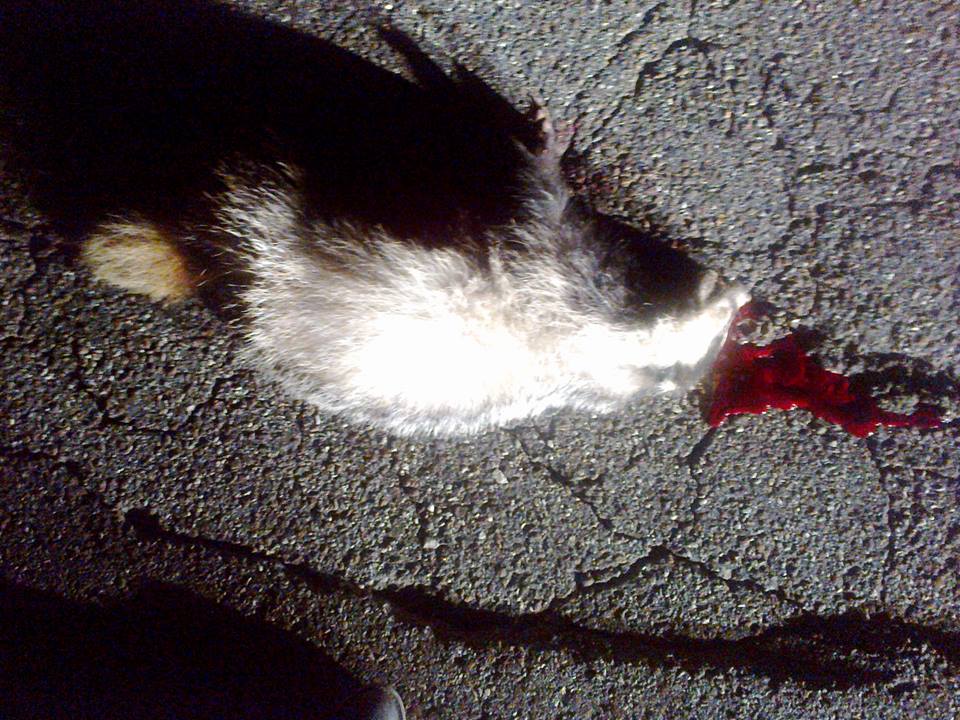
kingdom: Animalia
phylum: Chordata
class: Mammalia
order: Carnivora
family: Mustelidae
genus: Meles
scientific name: Meles meles
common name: Eurasian badger
